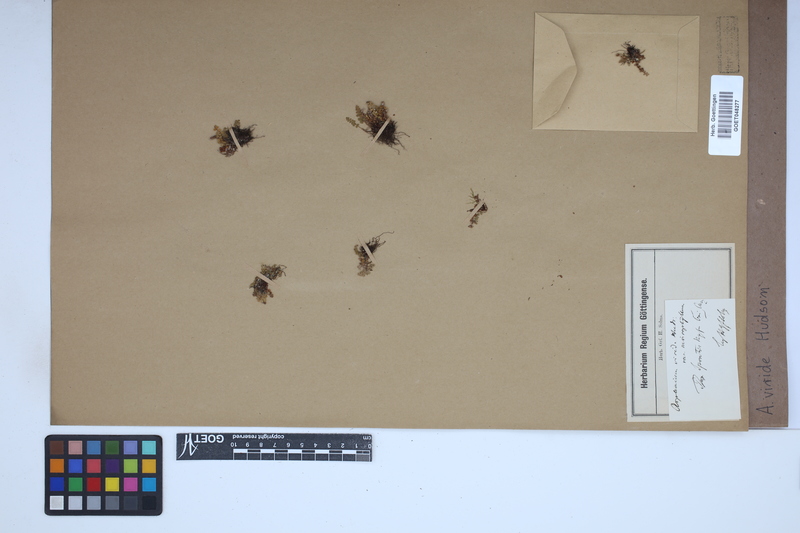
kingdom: Plantae
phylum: Tracheophyta
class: Polypodiopsida
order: Polypodiales
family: Aspleniaceae
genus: Asplenium
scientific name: Asplenium viride
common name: Green spleenwort
